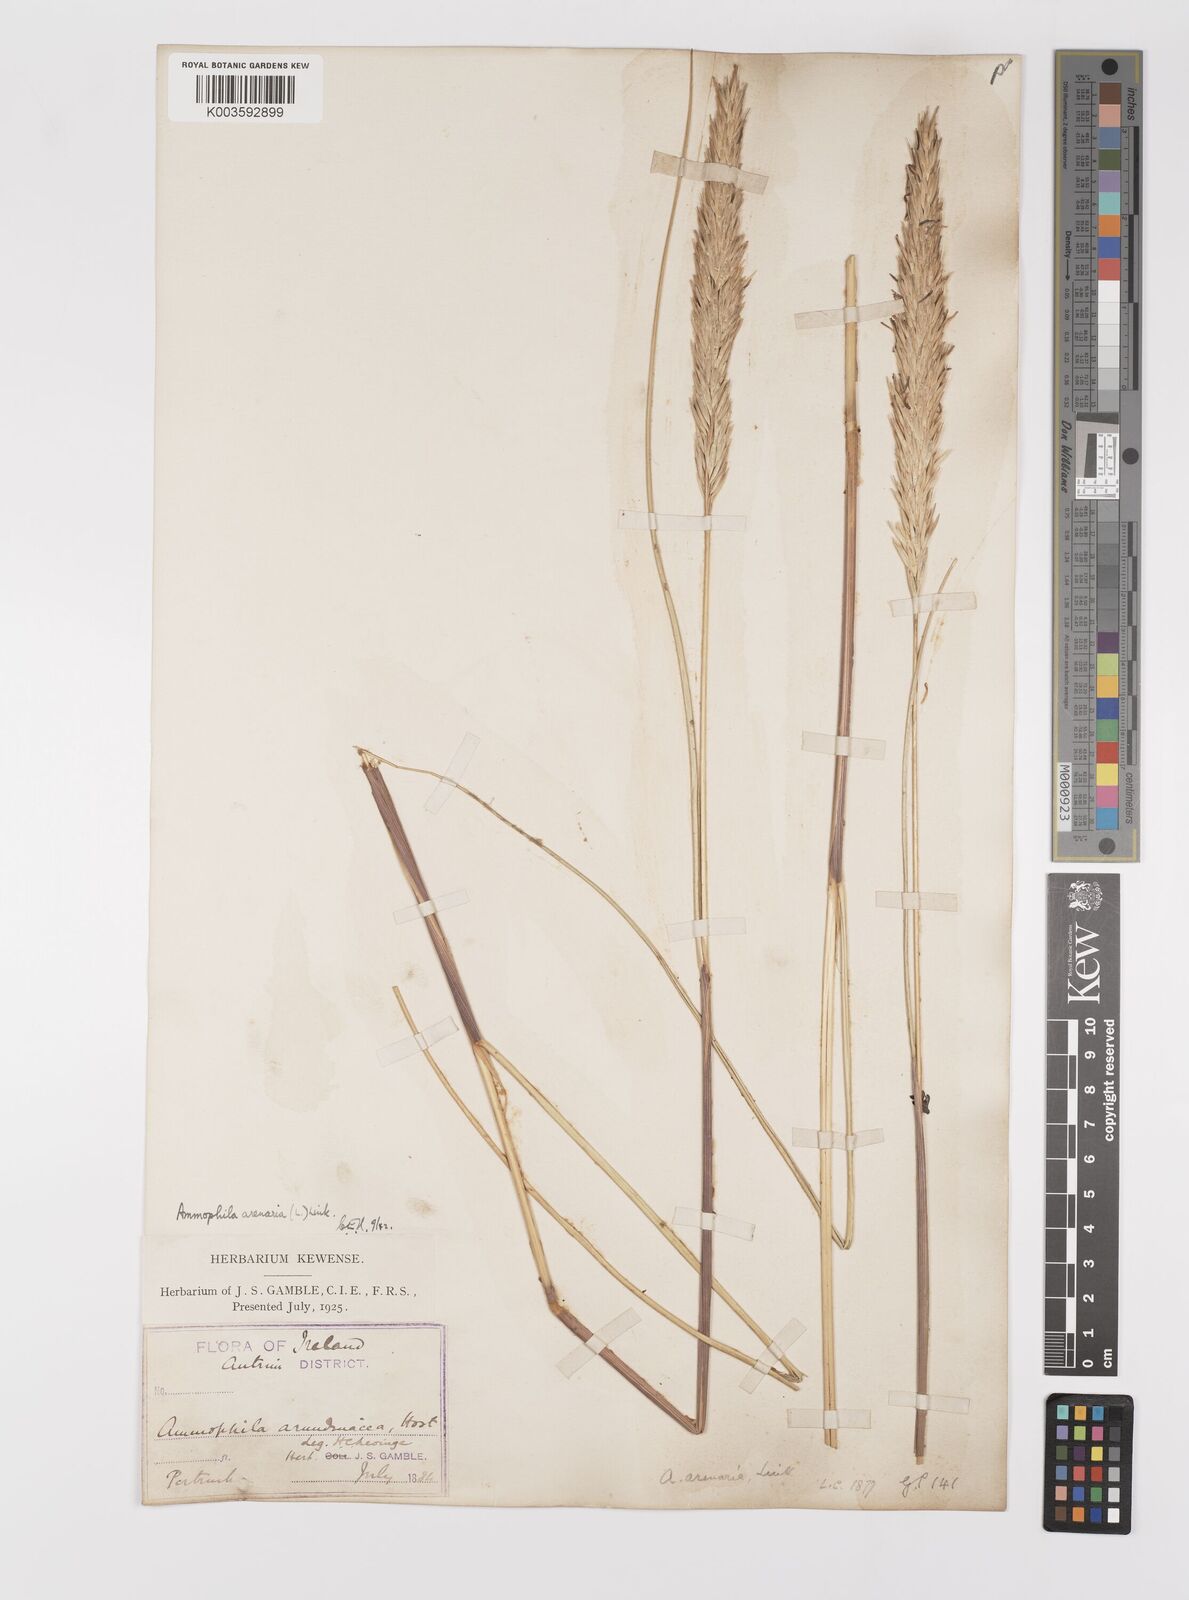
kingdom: Plantae
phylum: Tracheophyta
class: Liliopsida
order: Poales
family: Poaceae
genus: Calamagrostis
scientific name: Calamagrostis arenaria
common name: European beachgrass
